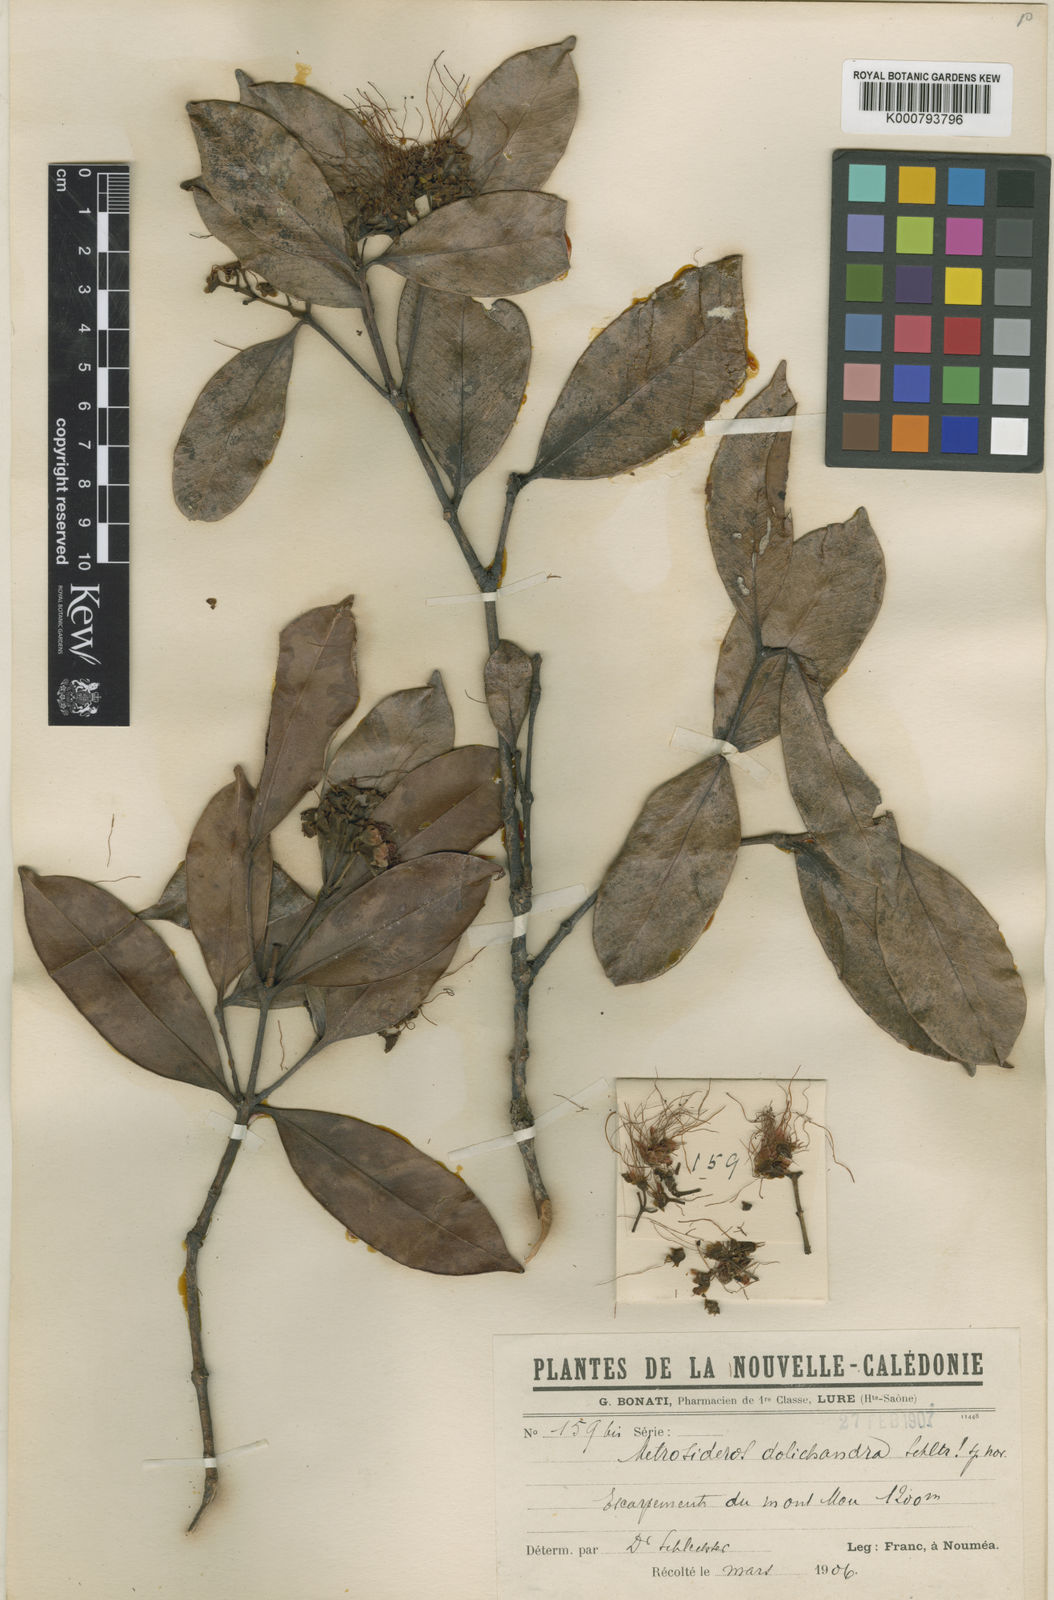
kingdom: Plantae
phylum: Tracheophyta
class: Magnoliopsida
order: Myrtales
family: Myrtaceae
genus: Metrosideros
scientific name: Metrosideros dolichandra
